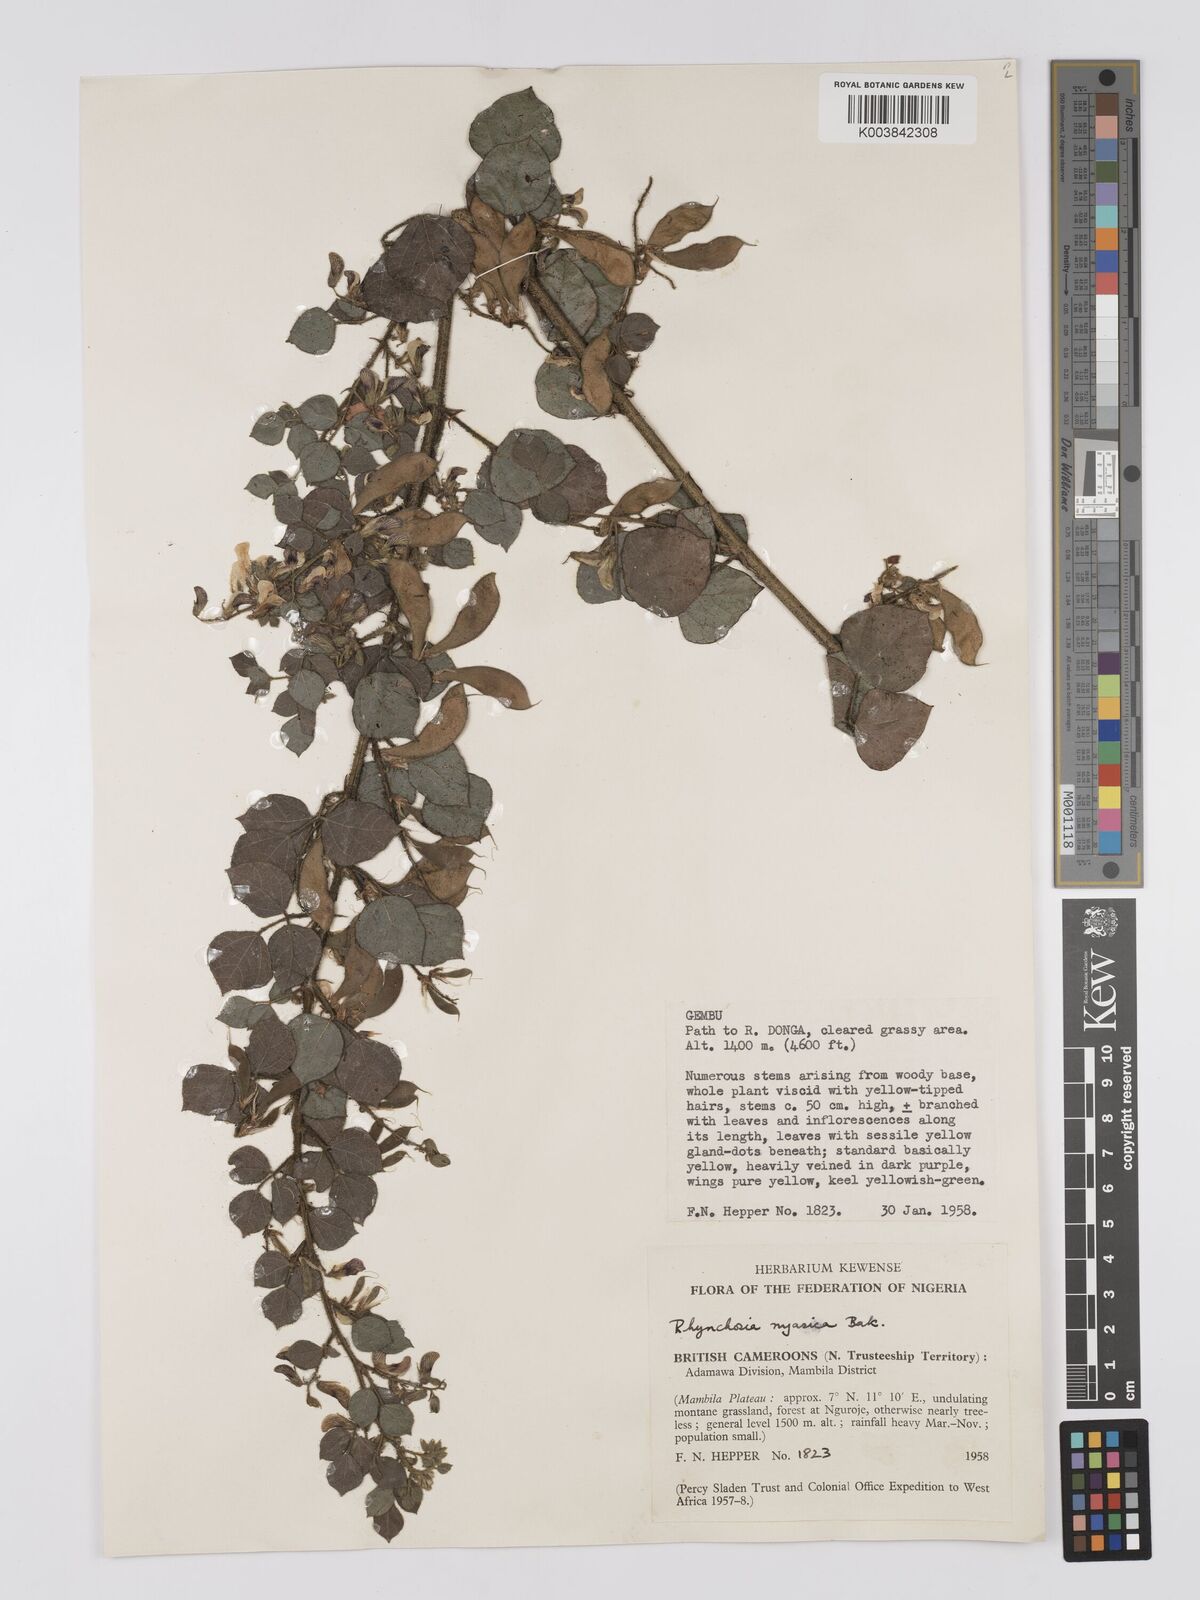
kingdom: Plantae
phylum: Tracheophyta
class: Magnoliopsida
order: Fabales
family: Fabaceae
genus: Rhynchosia
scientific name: Rhynchosia nyasica
